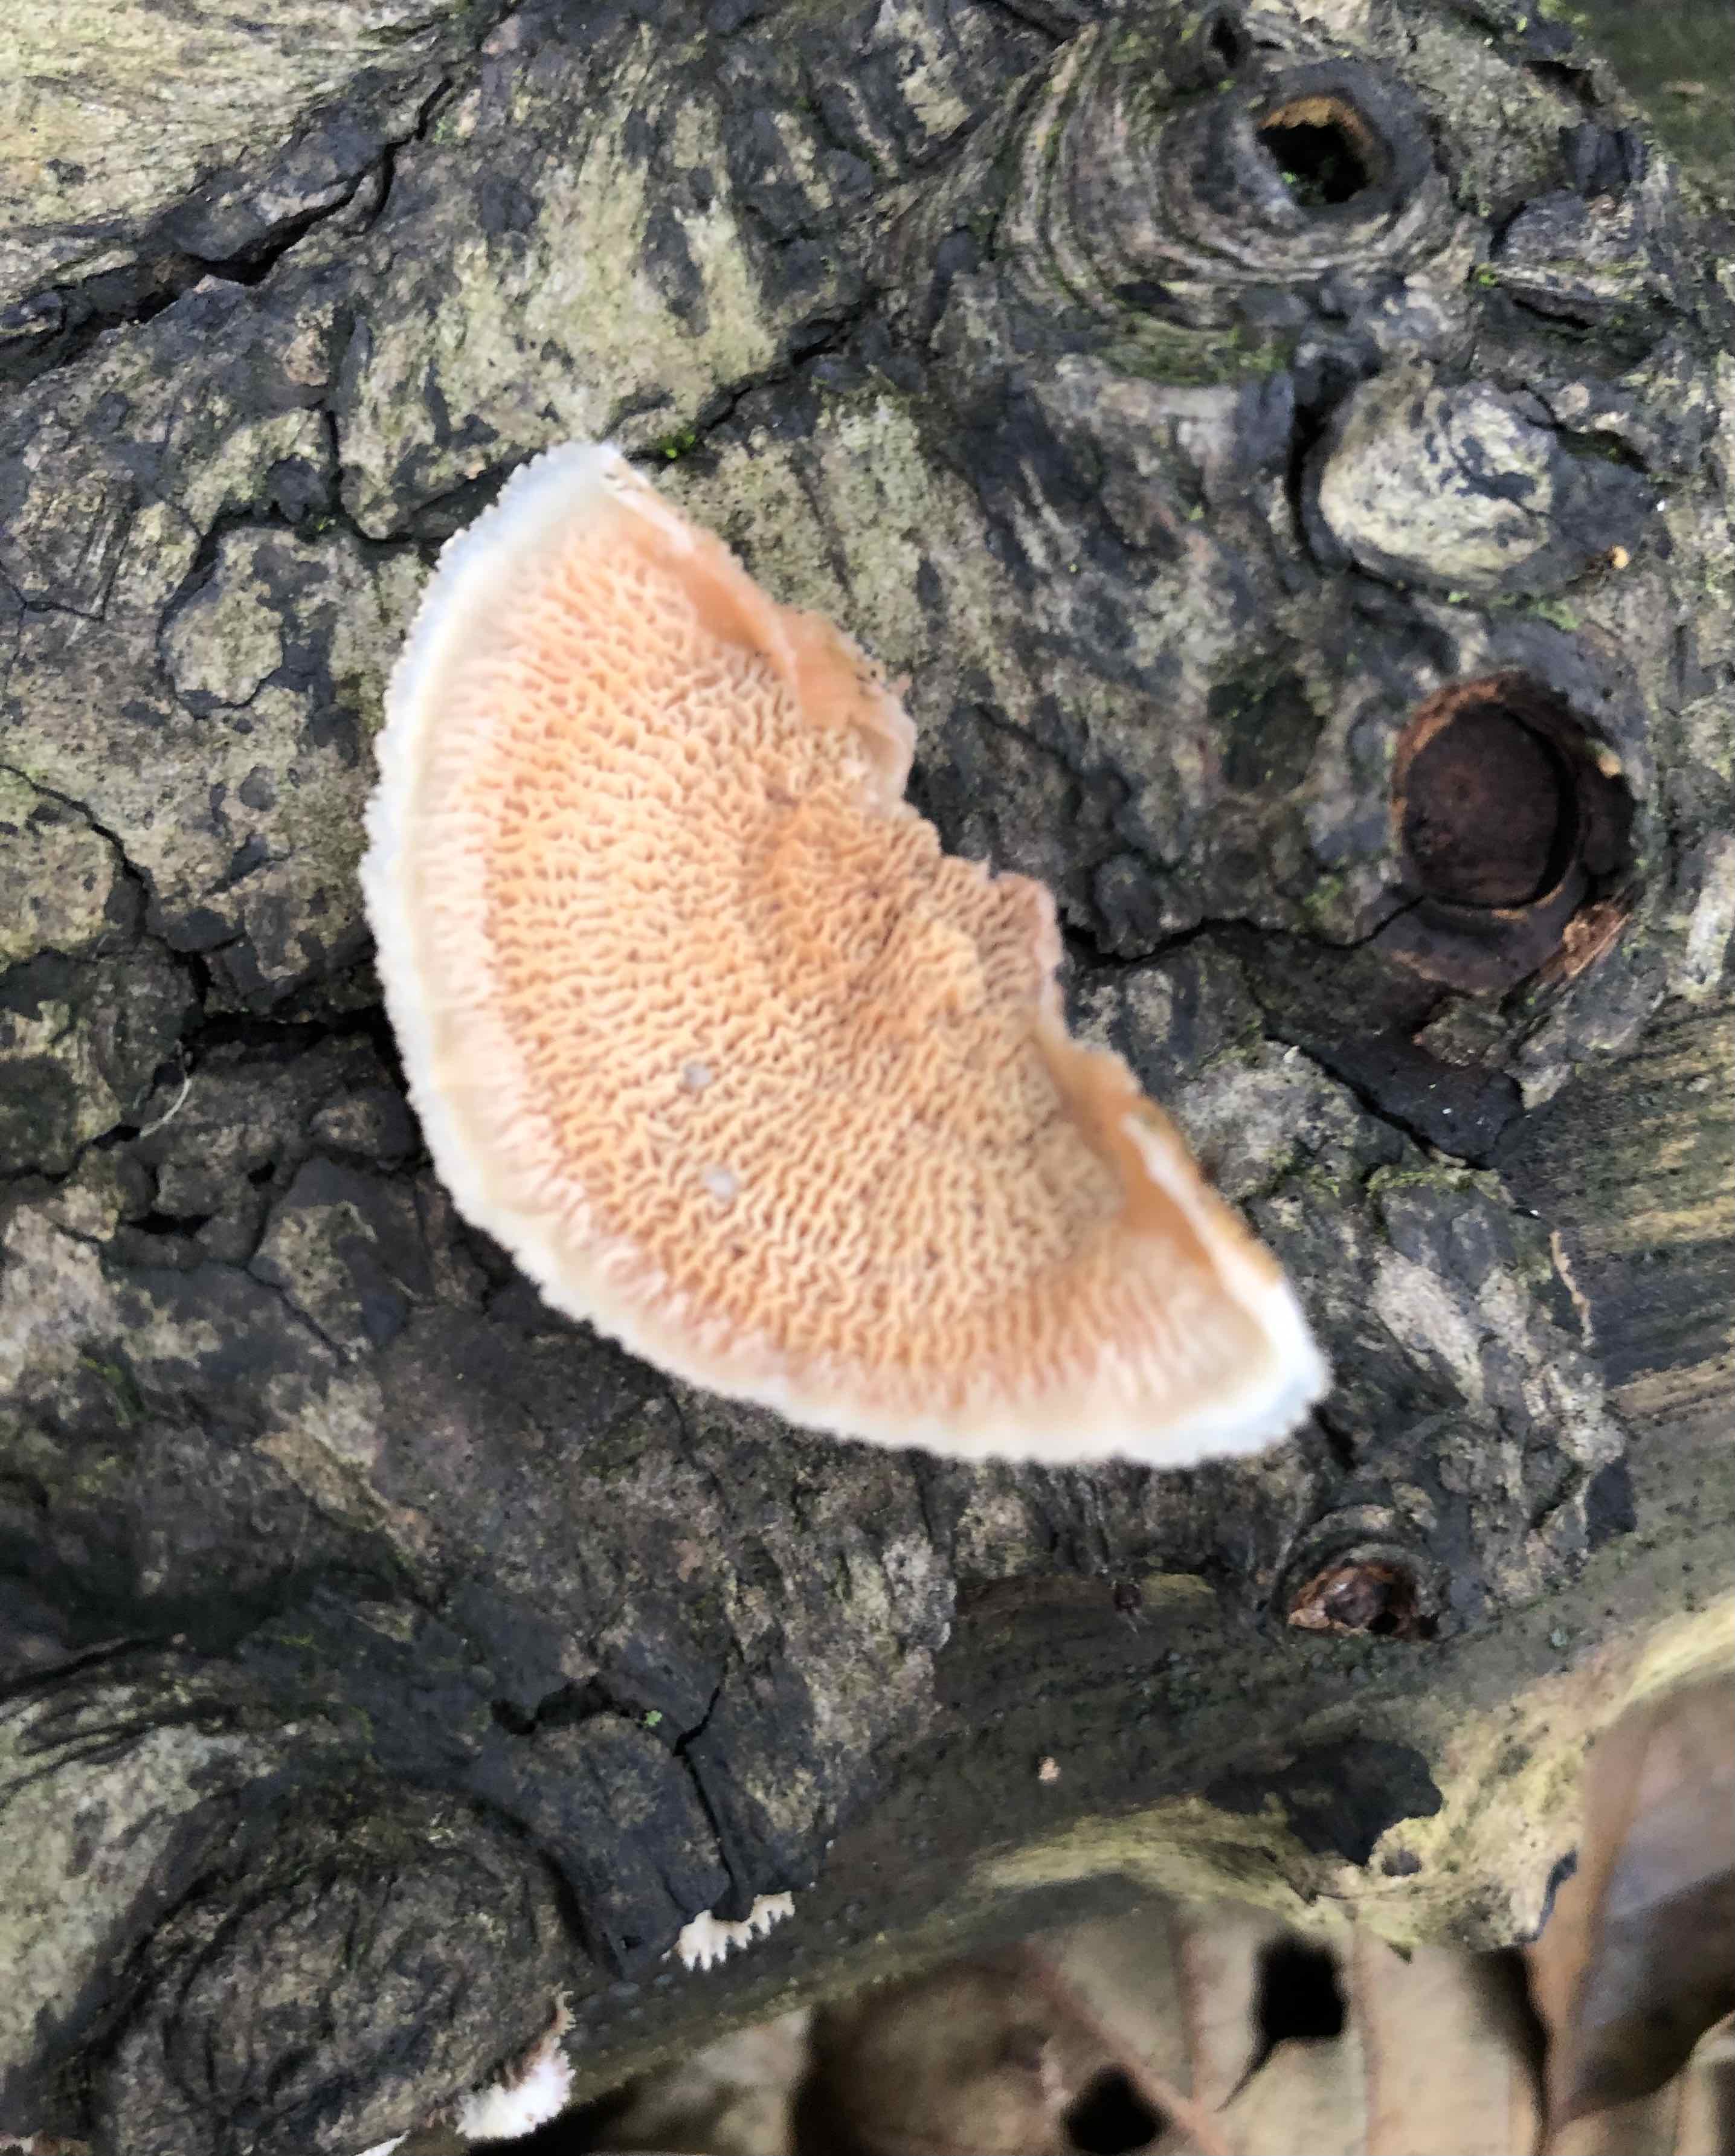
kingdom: Fungi
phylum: Basidiomycota
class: Agaricomycetes
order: Polyporales
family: Meruliaceae
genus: Phlebia
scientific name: Phlebia tremellosa
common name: bævrende åresvamp
